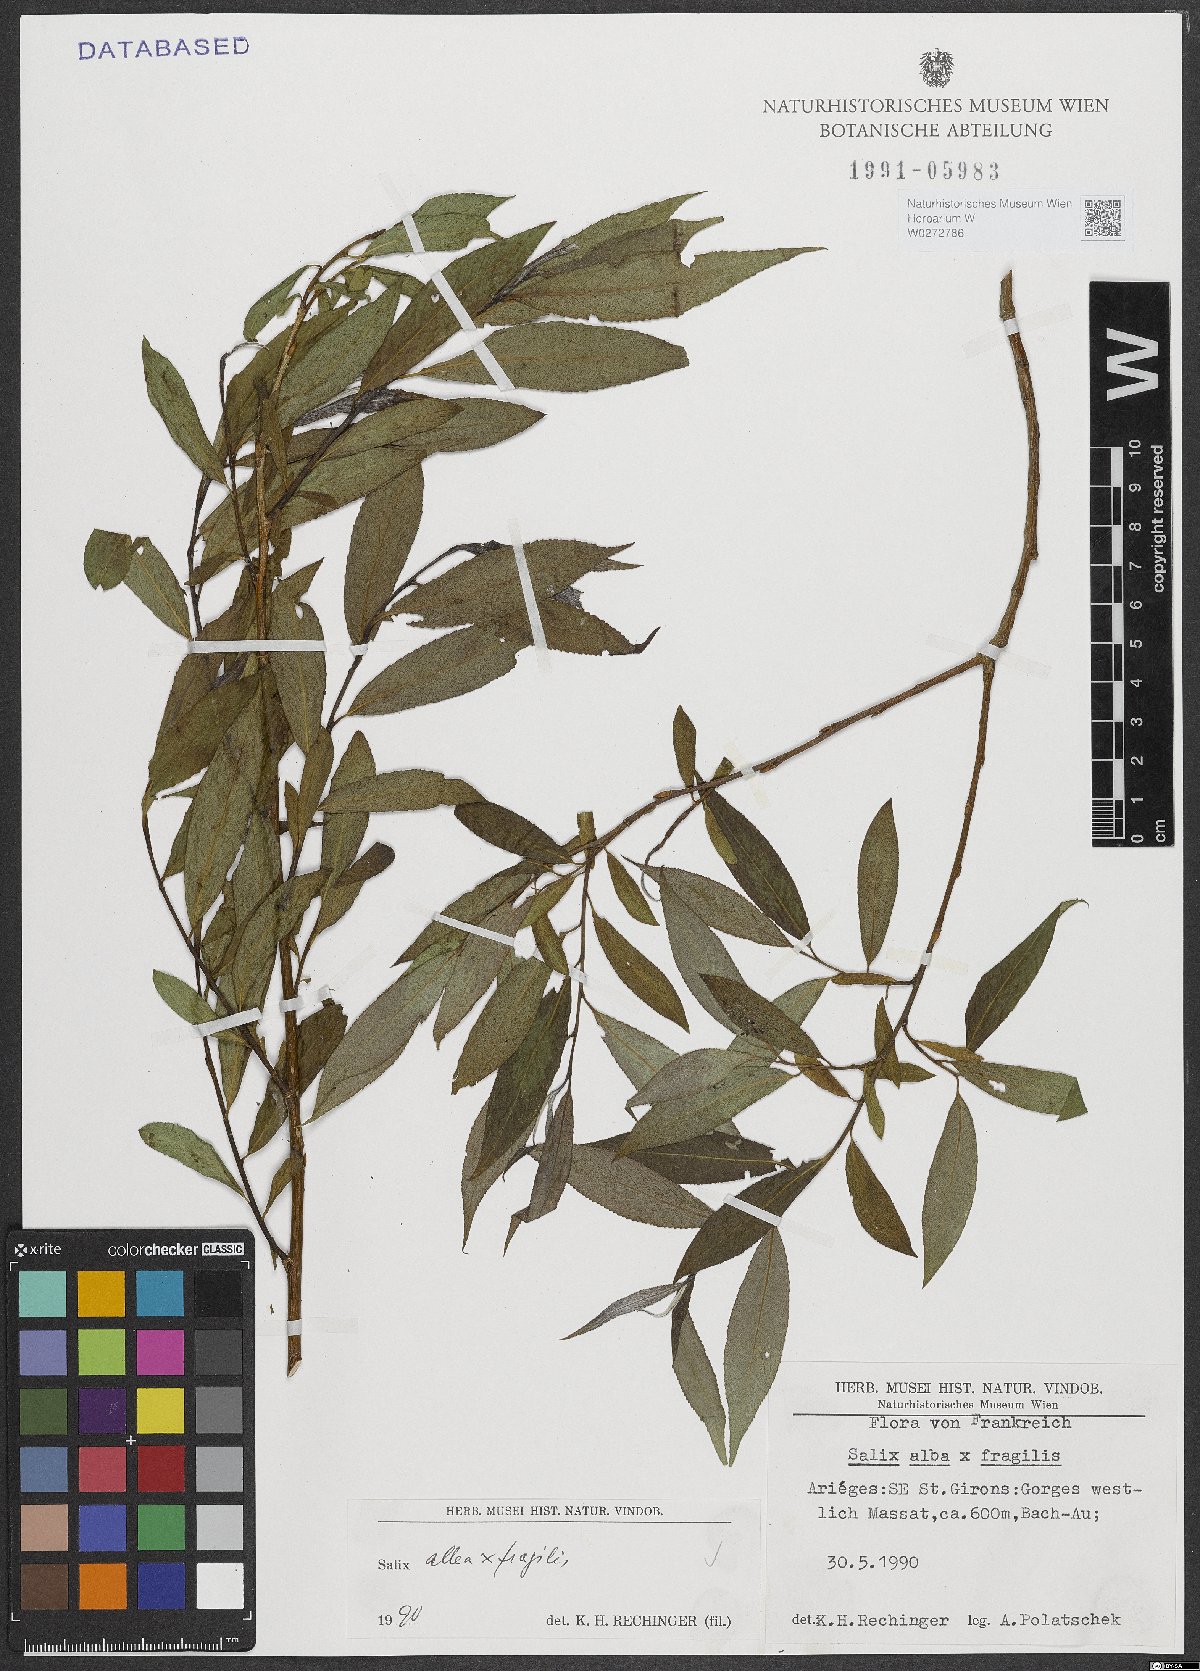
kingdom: Plantae
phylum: Tracheophyta
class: Magnoliopsida
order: Malpighiales
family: Salicaceae
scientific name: Salicaceae
